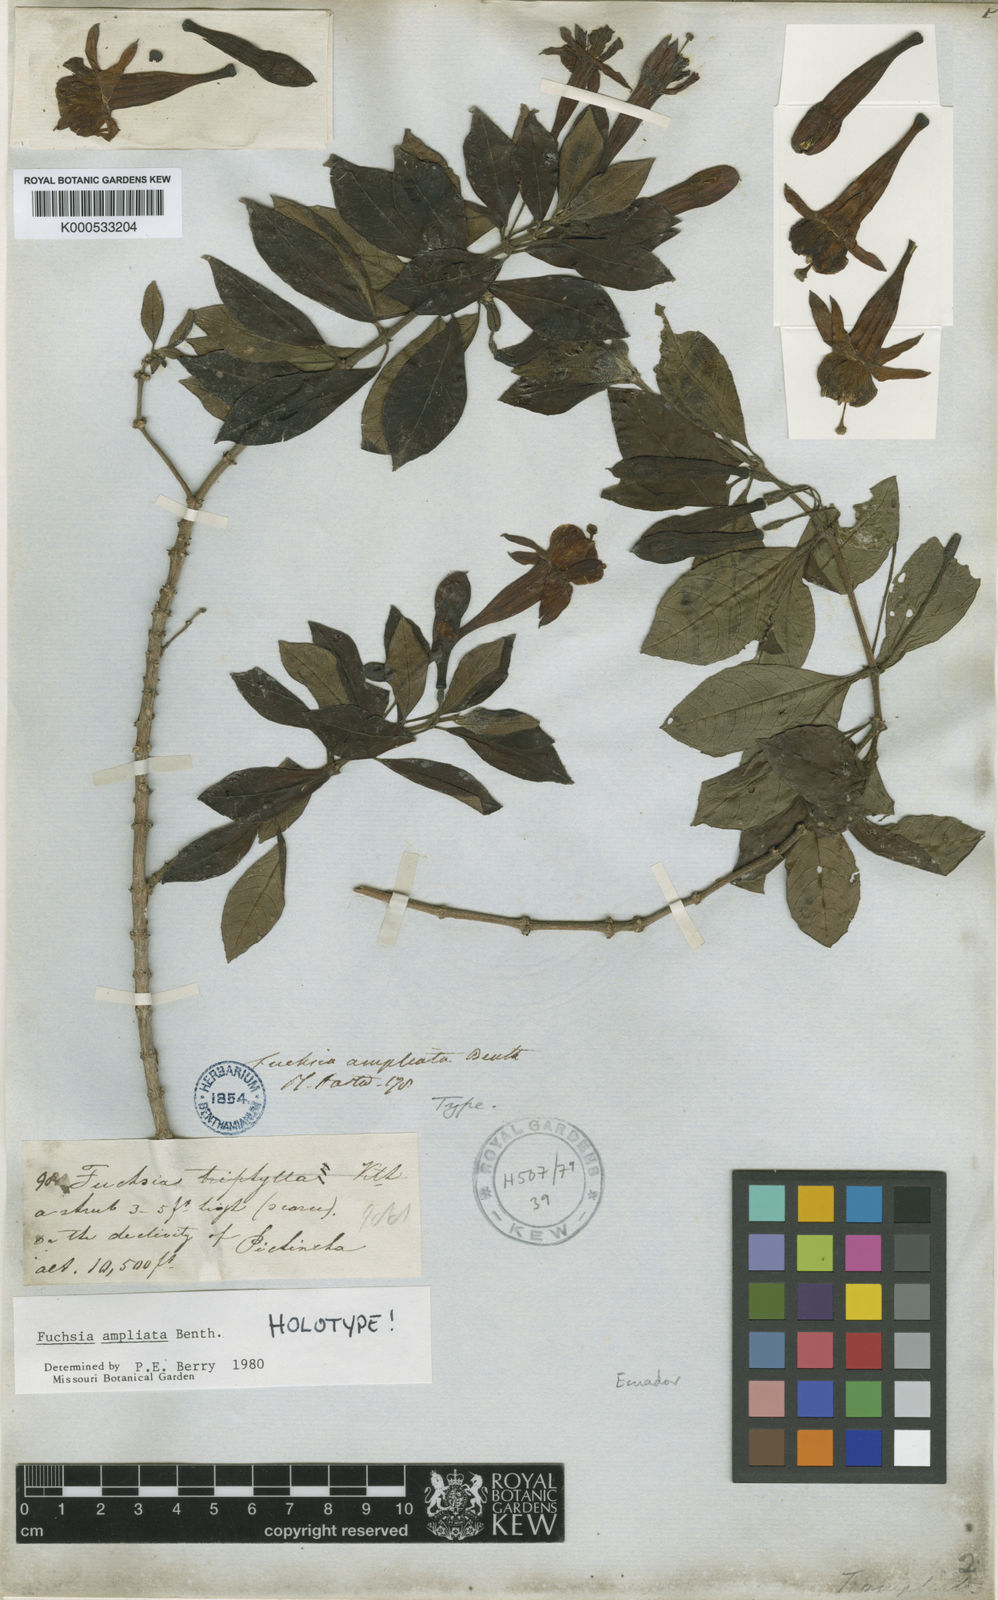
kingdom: Plantae
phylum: Tracheophyta
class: Magnoliopsida
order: Myrtales
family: Onagraceae
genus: Fuchsia
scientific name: Fuchsia ampliata
